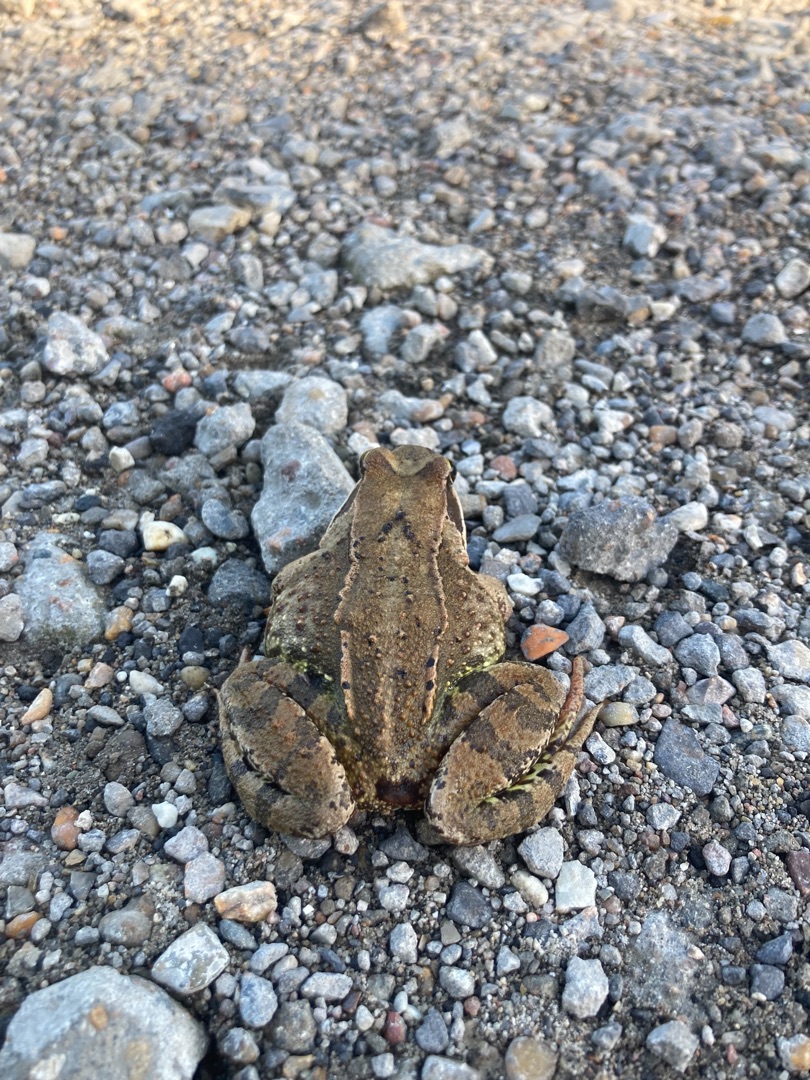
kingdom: Animalia
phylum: Chordata
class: Amphibia
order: Anura
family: Ranidae
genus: Rana
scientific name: Rana temporaria
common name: Butsnudet frø
